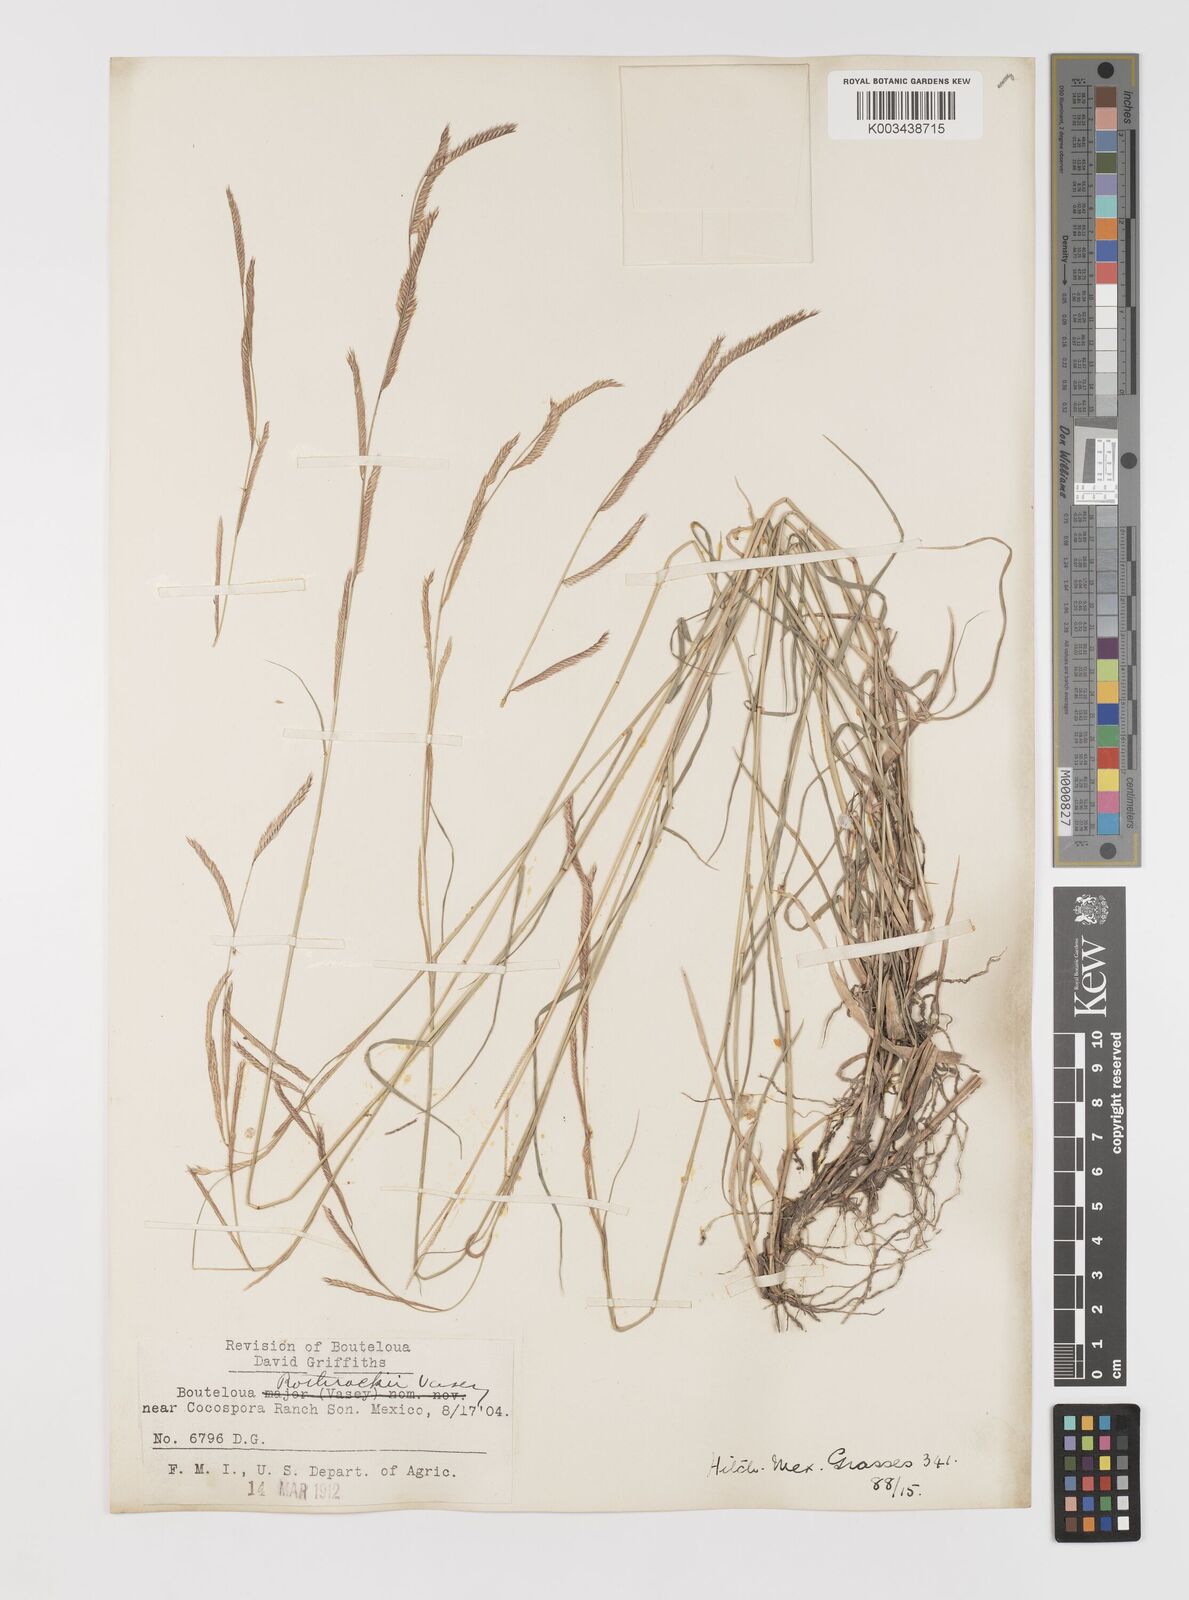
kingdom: Plantae
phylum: Tracheophyta
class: Liliopsida
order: Poales
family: Poaceae
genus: Bouteloua
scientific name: Bouteloua barbata
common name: Six-weeks grama
